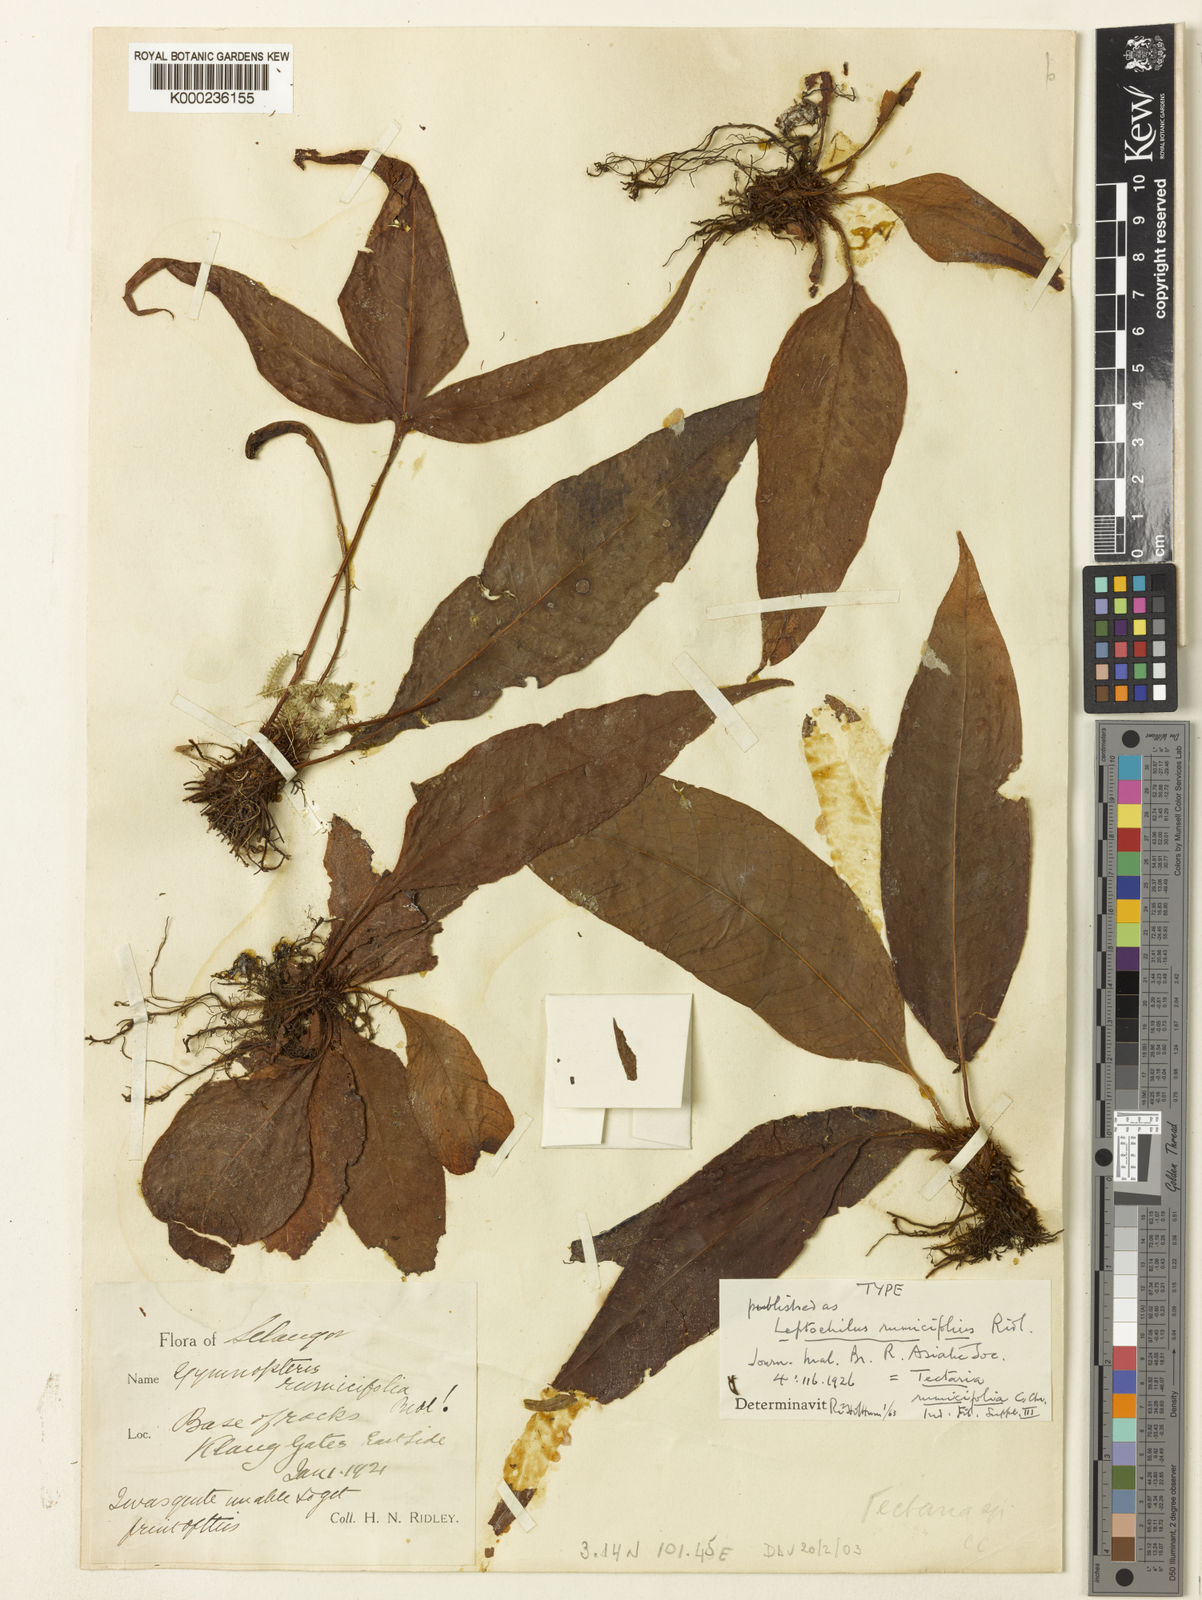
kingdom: Plantae
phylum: Tracheophyta
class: Polypodiopsida
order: Polypodiales
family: Tectariaceae
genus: Tectaria
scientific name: Tectaria fissa
